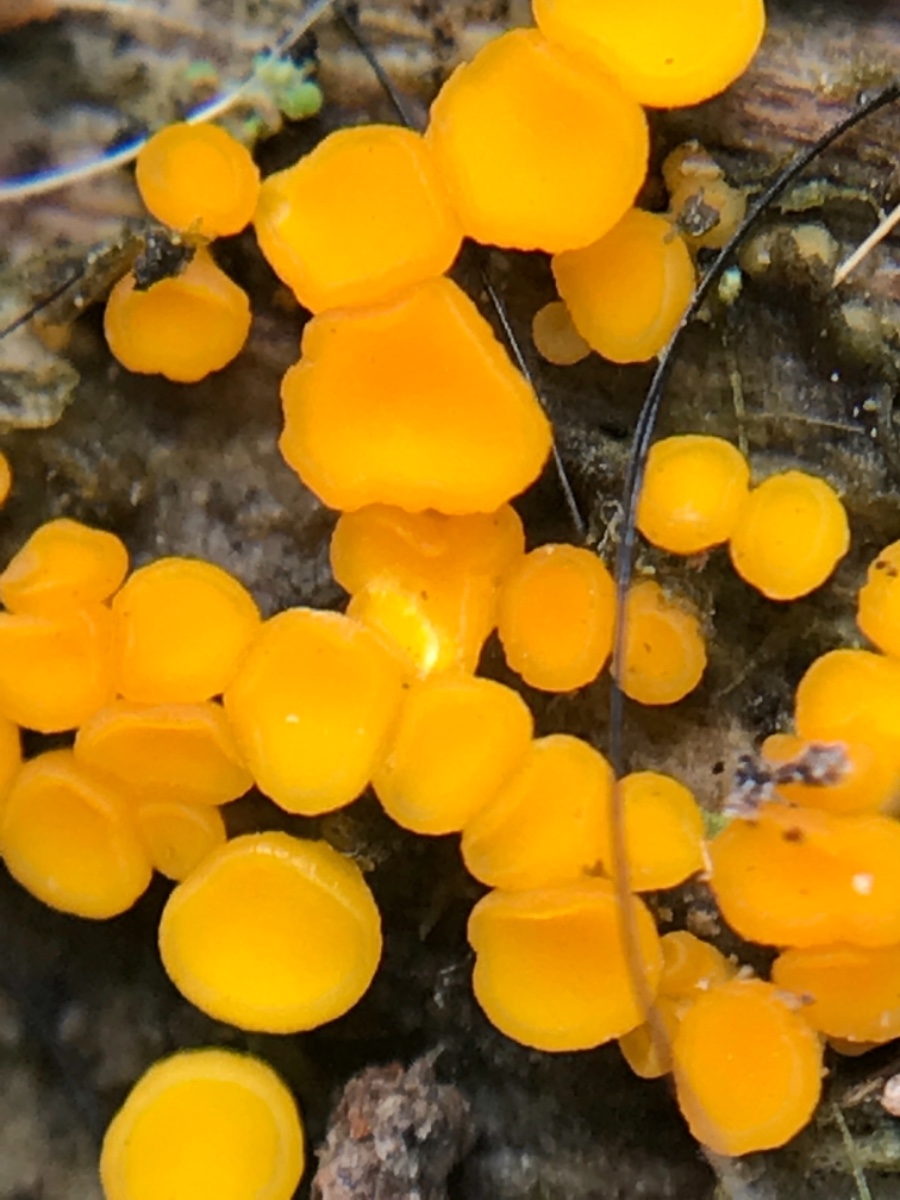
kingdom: Fungi
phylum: Ascomycota
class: Leotiomycetes
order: Helotiales
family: Pezizellaceae
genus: Calycina
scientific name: Calycina citrina
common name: almindelig gulskive
